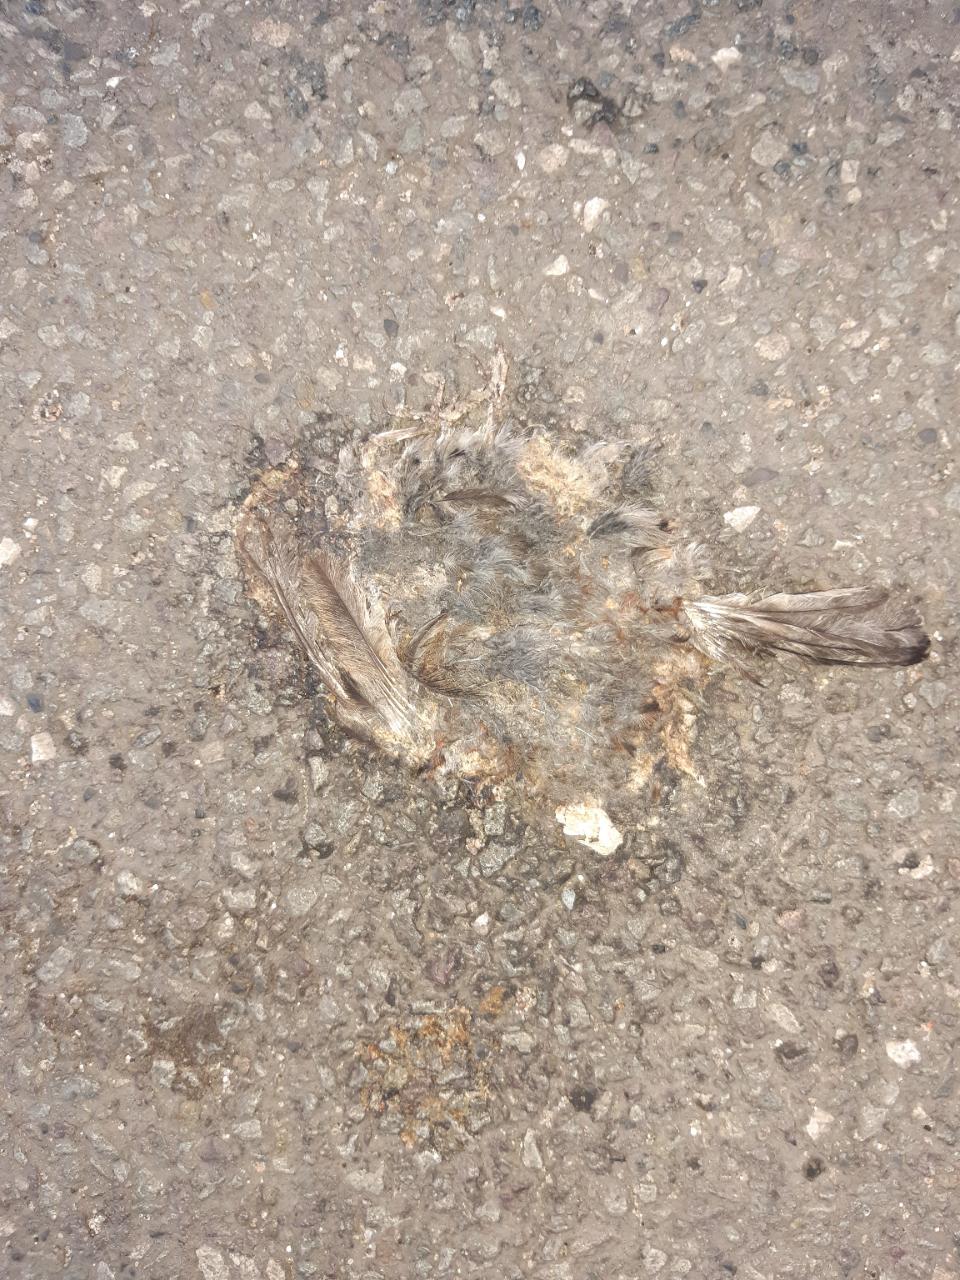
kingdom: Animalia
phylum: Chordata
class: Aves
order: Passeriformes
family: Passeridae
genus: Passer
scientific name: Passer domesticus
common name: House sparrow
